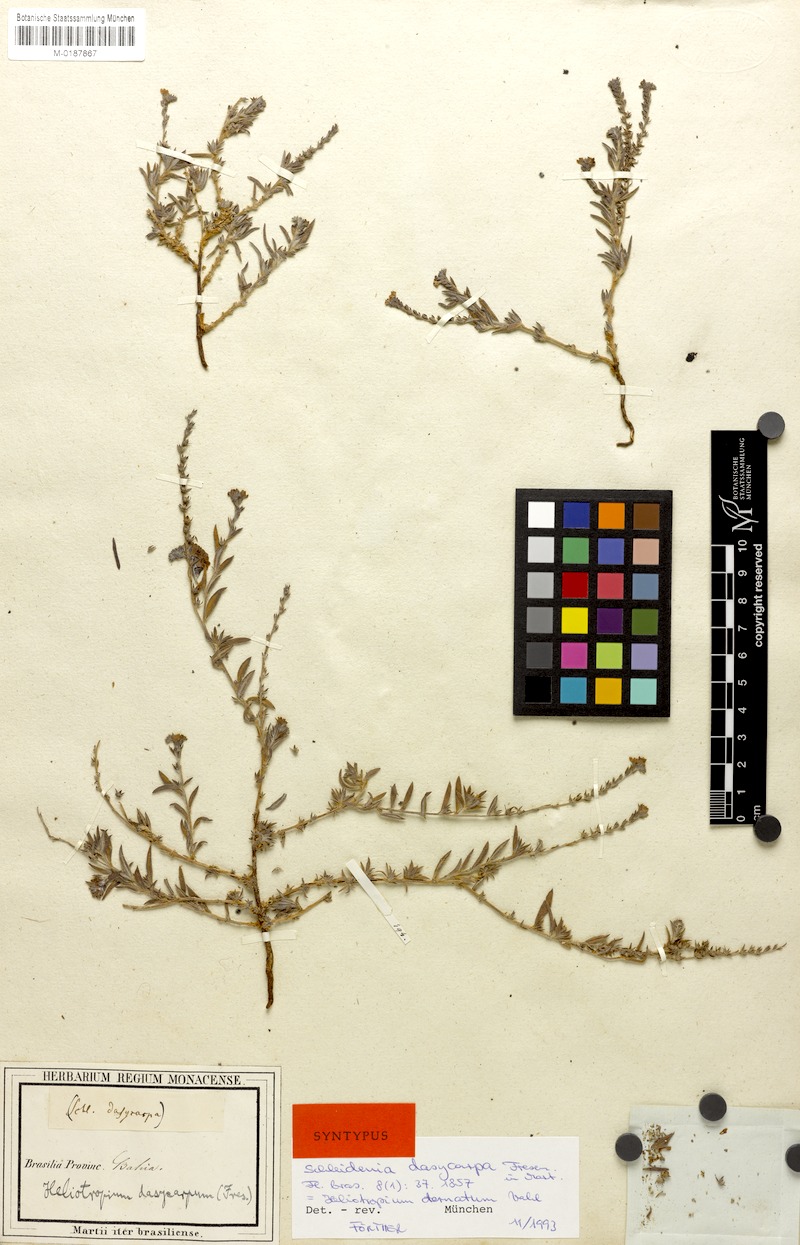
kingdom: Plantae
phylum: Tracheophyta
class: Magnoliopsida
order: Boraginales
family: Heliotropiaceae
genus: Euploca
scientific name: Euploca humilis
